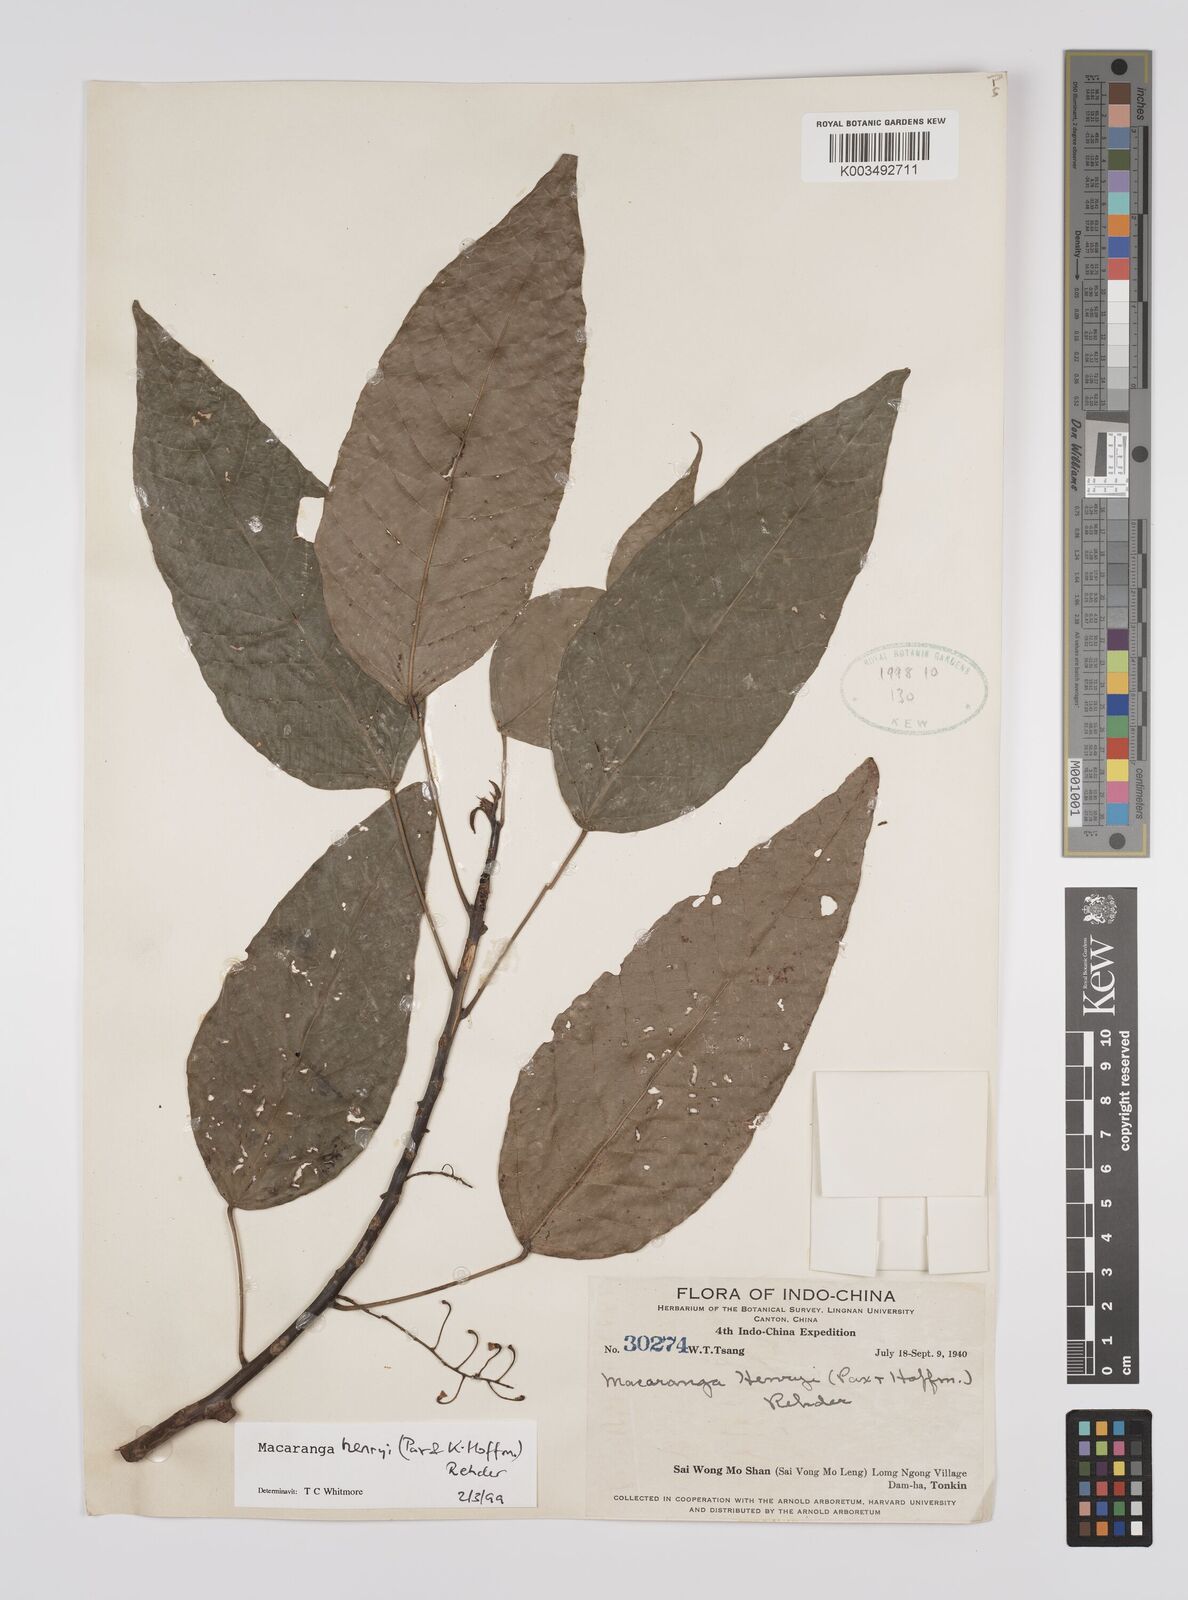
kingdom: Plantae
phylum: Tracheophyta
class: Magnoliopsida
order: Malpighiales
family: Euphorbiaceae
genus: Macaranga
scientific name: Macaranga hosei
